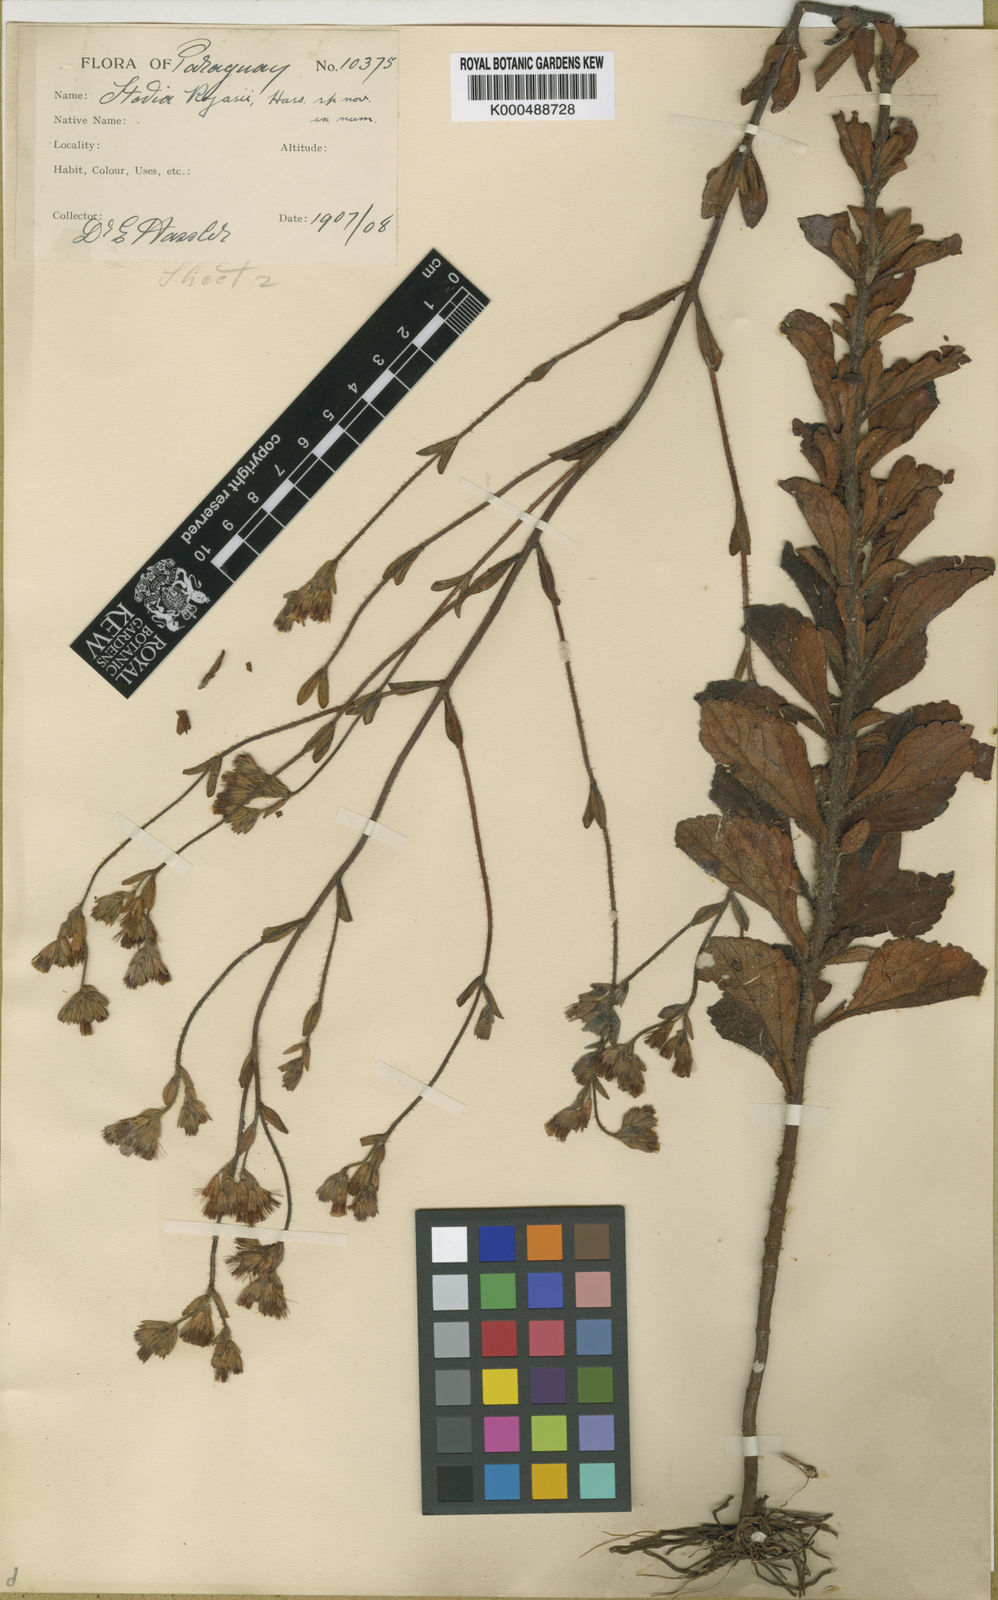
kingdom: Plantae
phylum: Tracheophyta
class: Magnoliopsida
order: Asterales
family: Asteraceae
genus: Stevia
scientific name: Stevia rojasii
